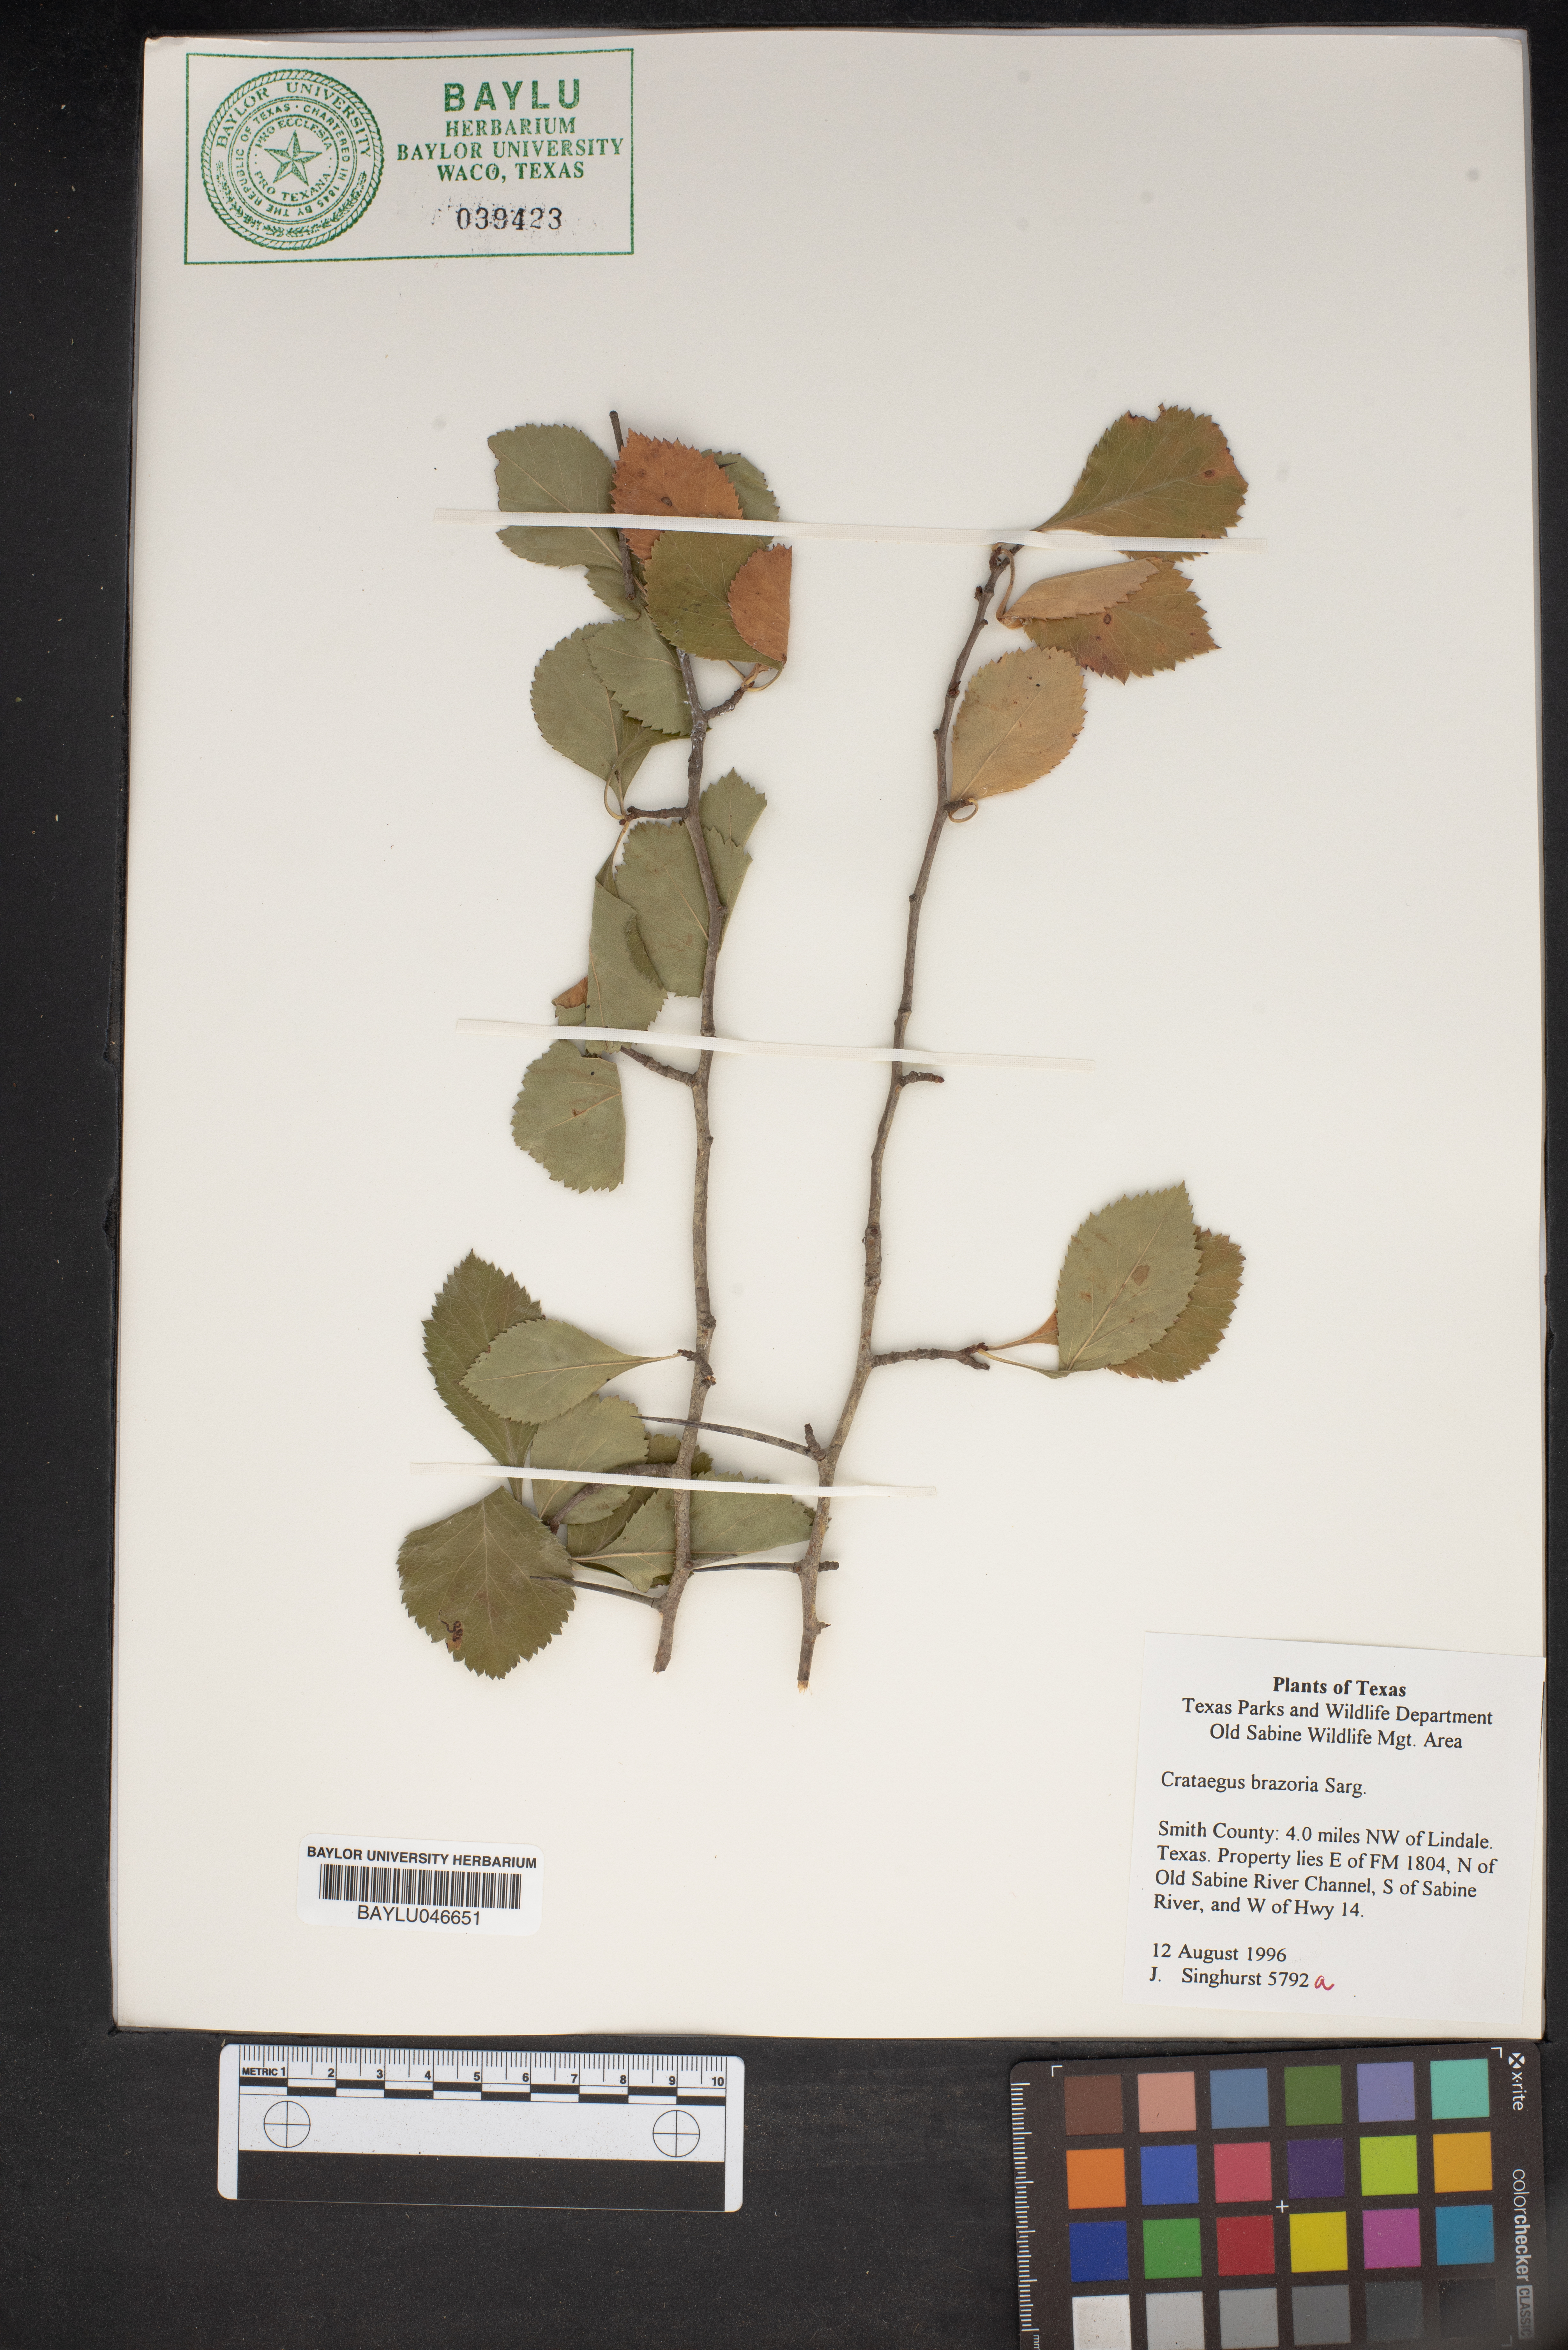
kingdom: Plantae
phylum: Tracheophyta
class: Magnoliopsida
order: Rosales
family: Rosaceae
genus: Crataegus
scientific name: Crataegus brazoria
